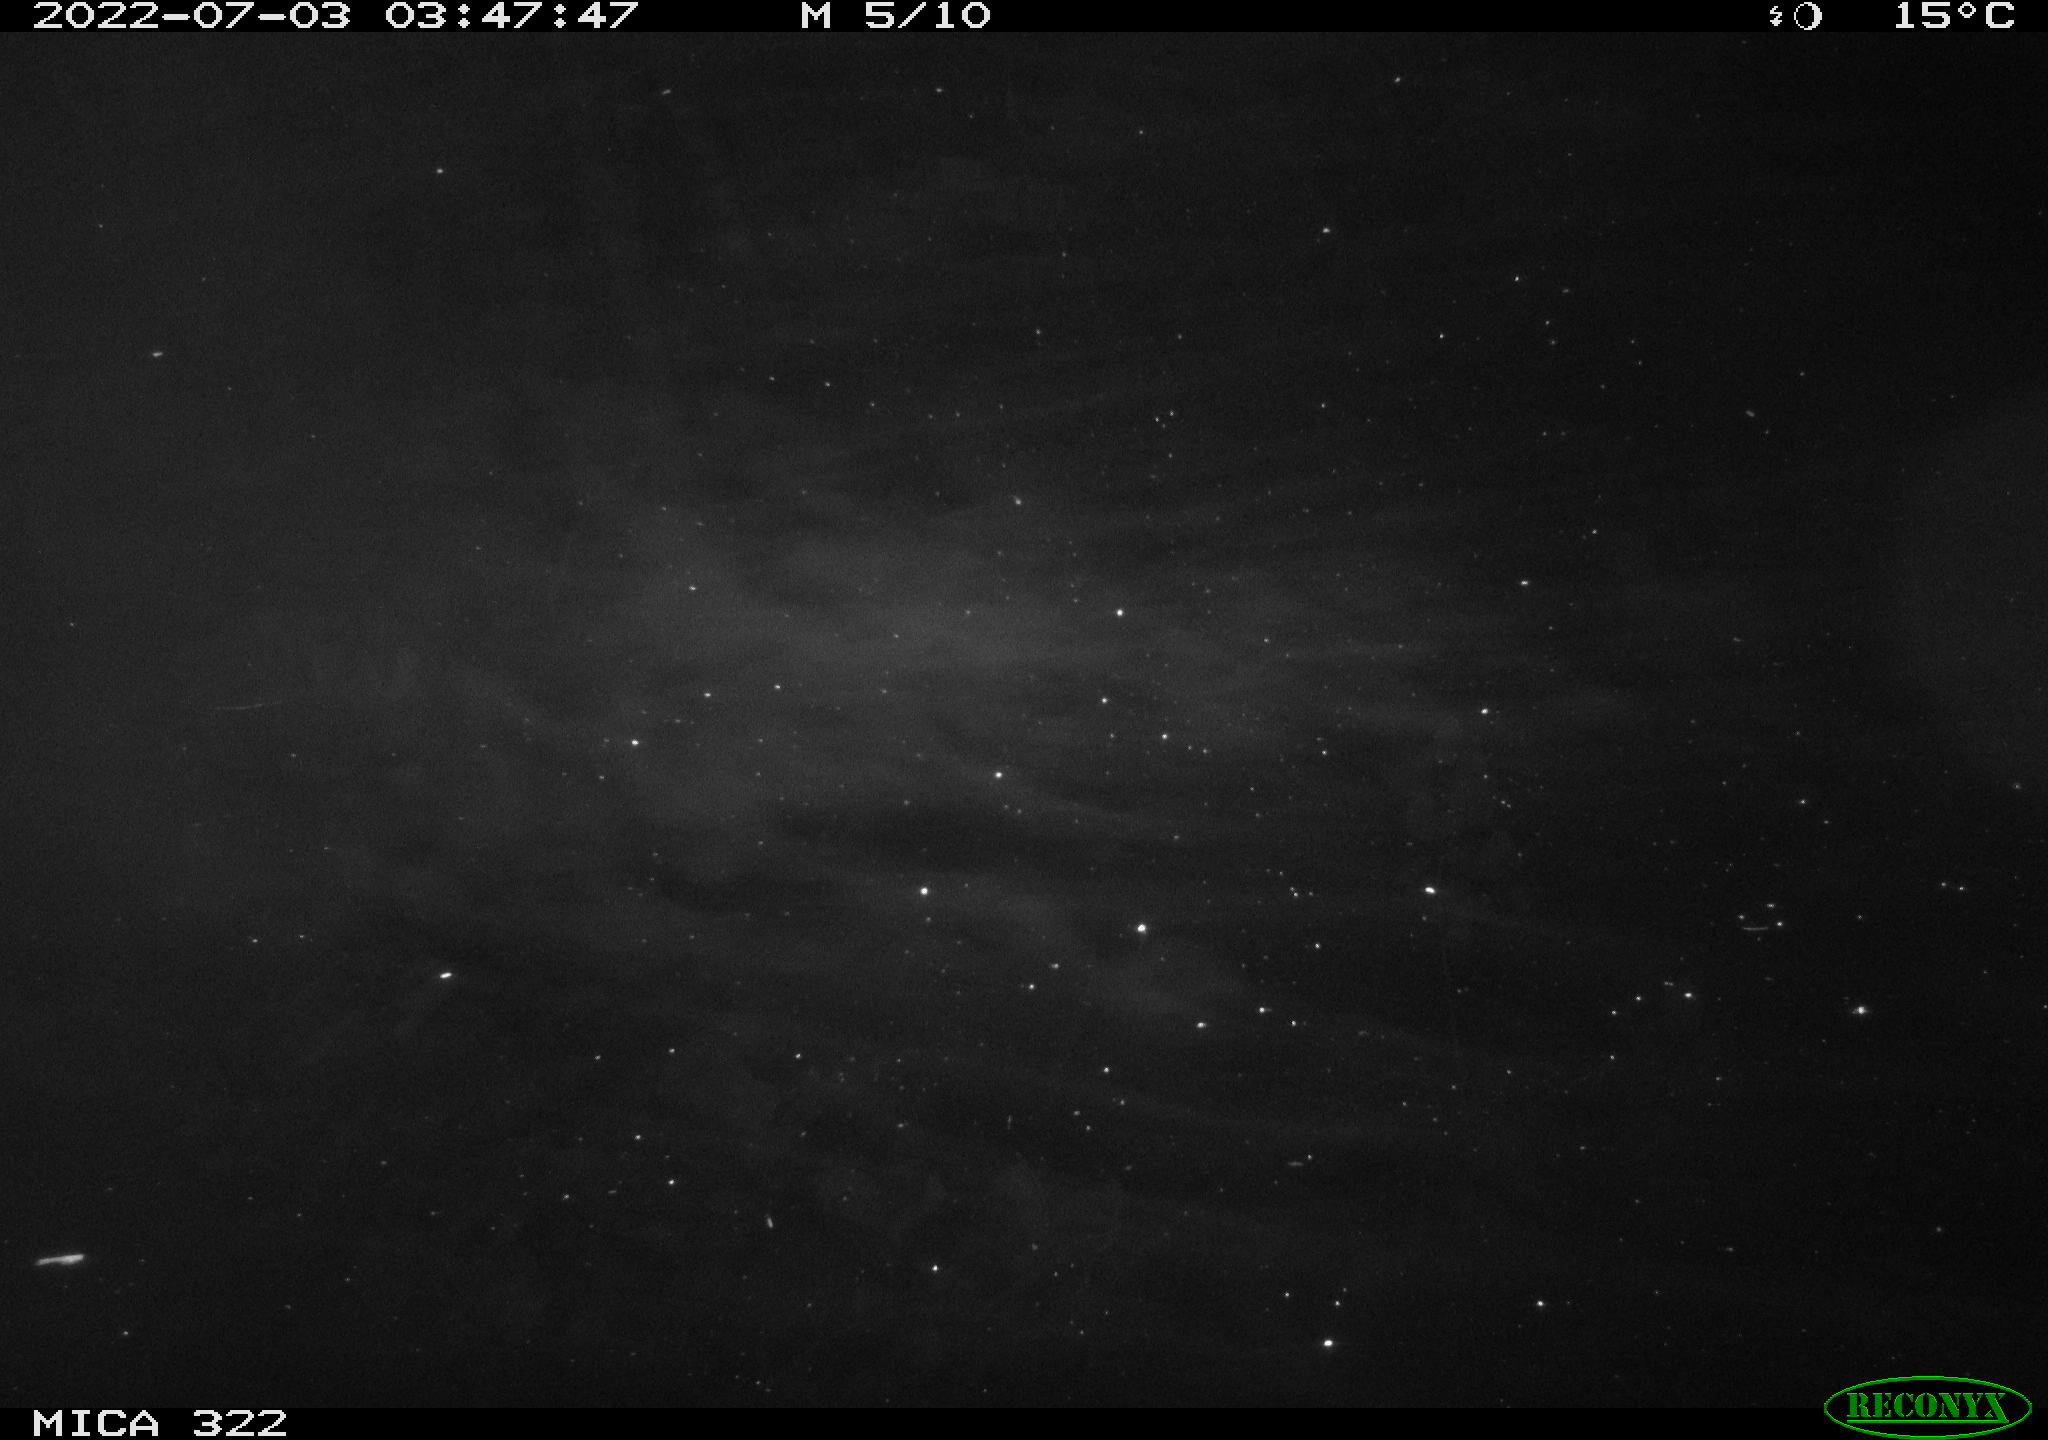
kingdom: Animalia
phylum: Chordata
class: Mammalia
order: Rodentia
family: Muridae
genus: Rattus
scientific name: Rattus norvegicus
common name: Brown rat
